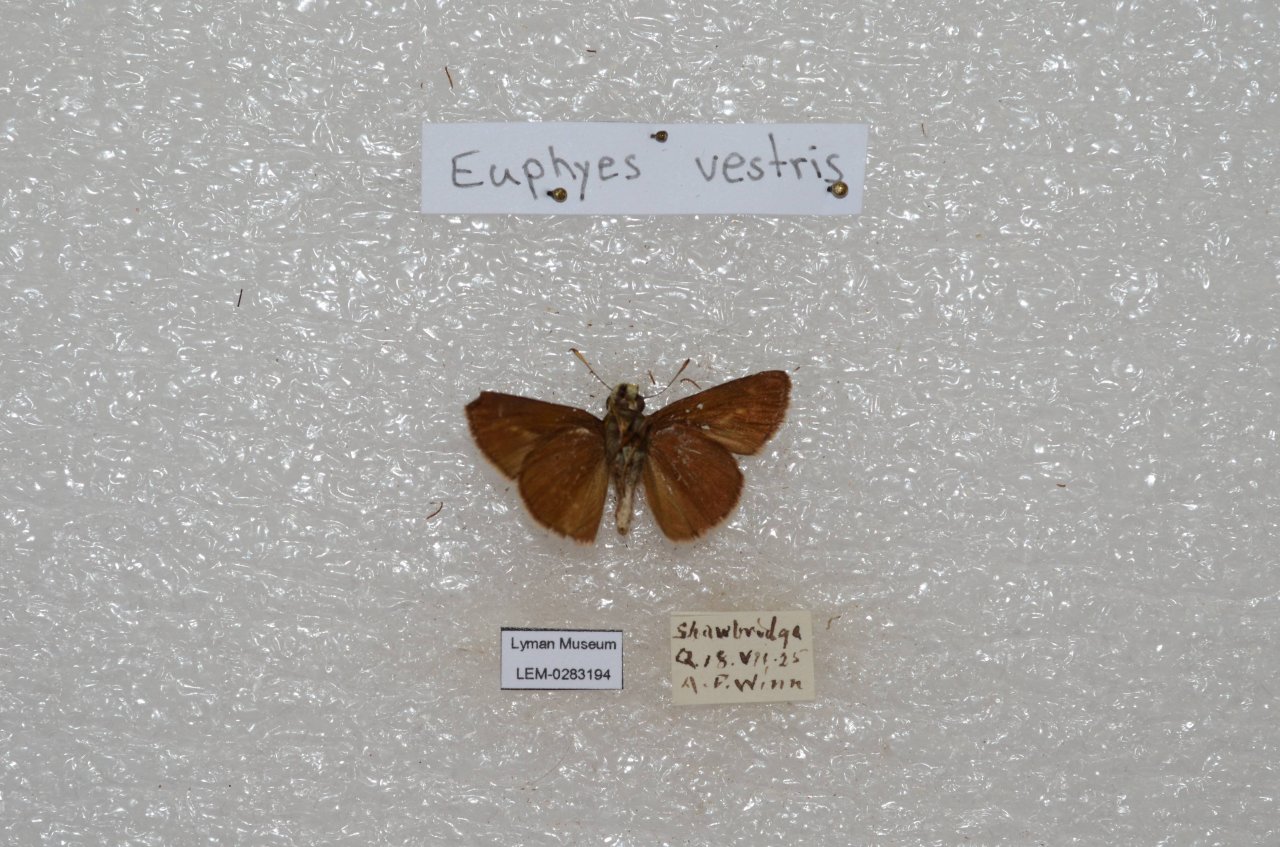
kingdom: Animalia
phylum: Arthropoda
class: Insecta
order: Lepidoptera
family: Hesperiidae
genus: Euphyes
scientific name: Euphyes vestris
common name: Dun Skipper
